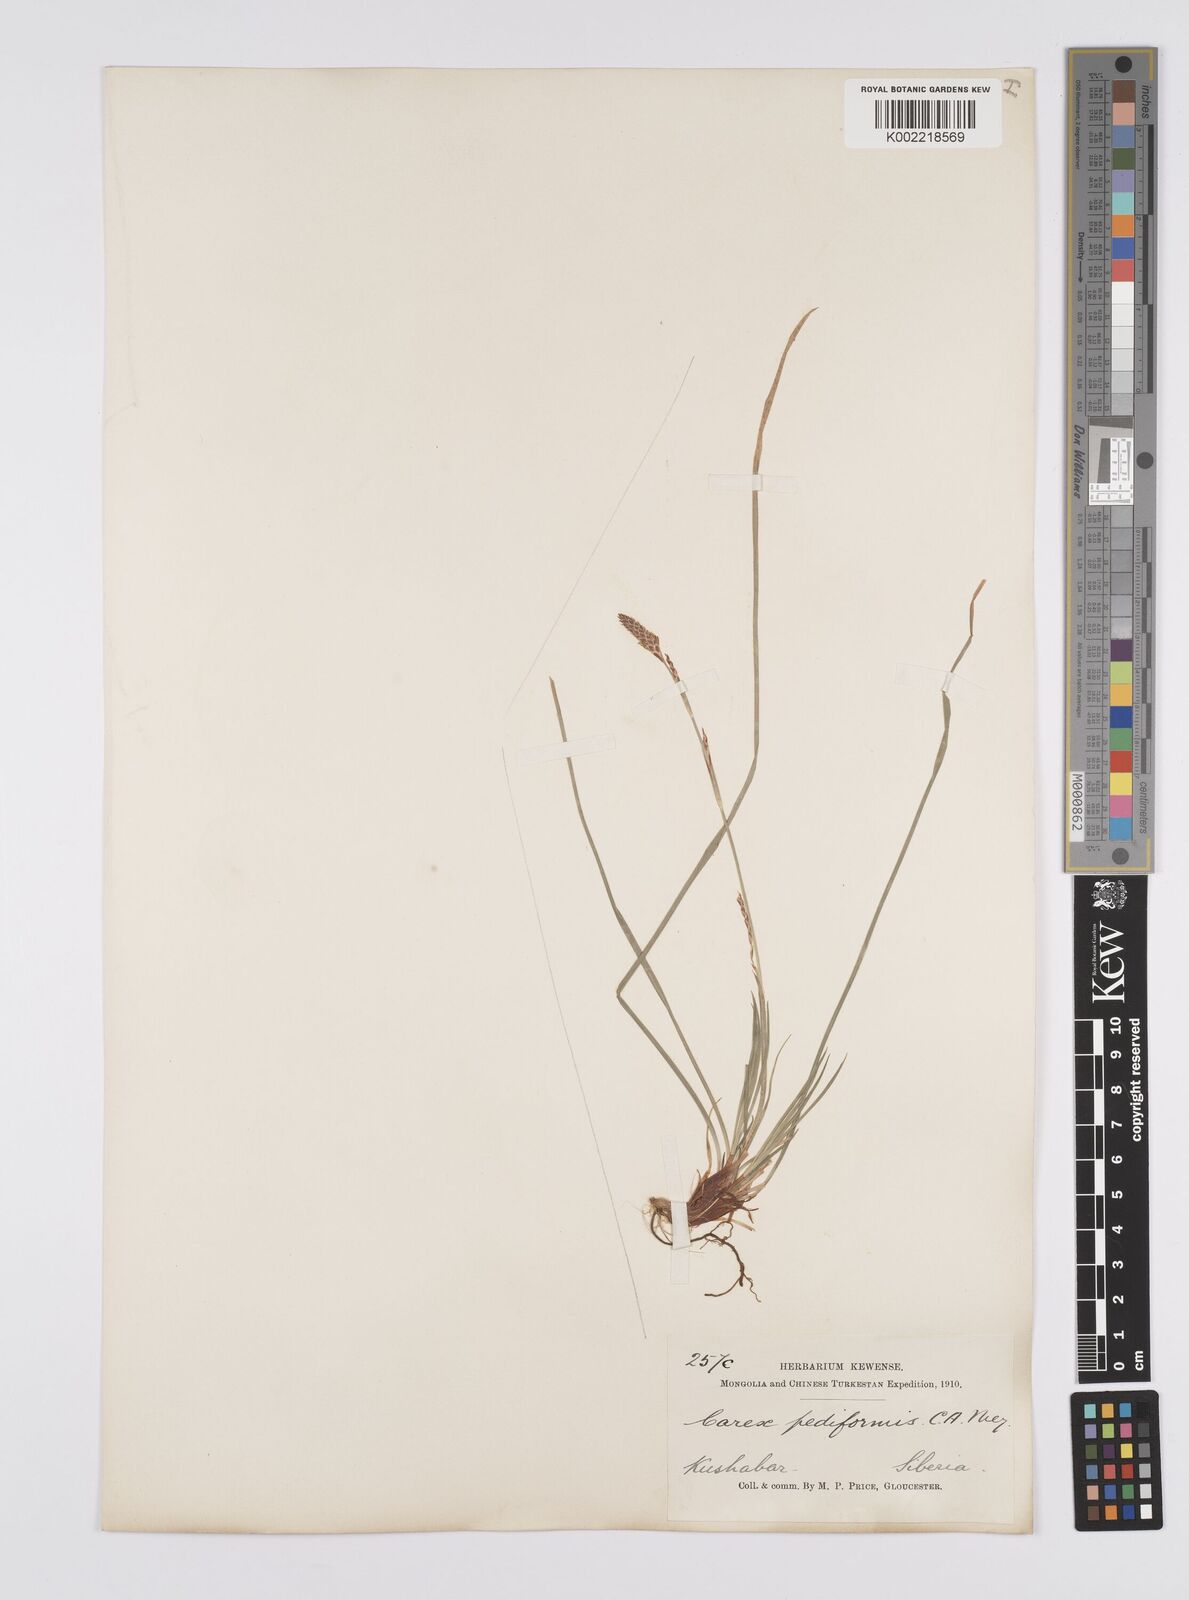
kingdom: Plantae
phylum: Tracheophyta
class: Liliopsida
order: Poales
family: Cyperaceae
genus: Carex
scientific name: Carex pediformis
